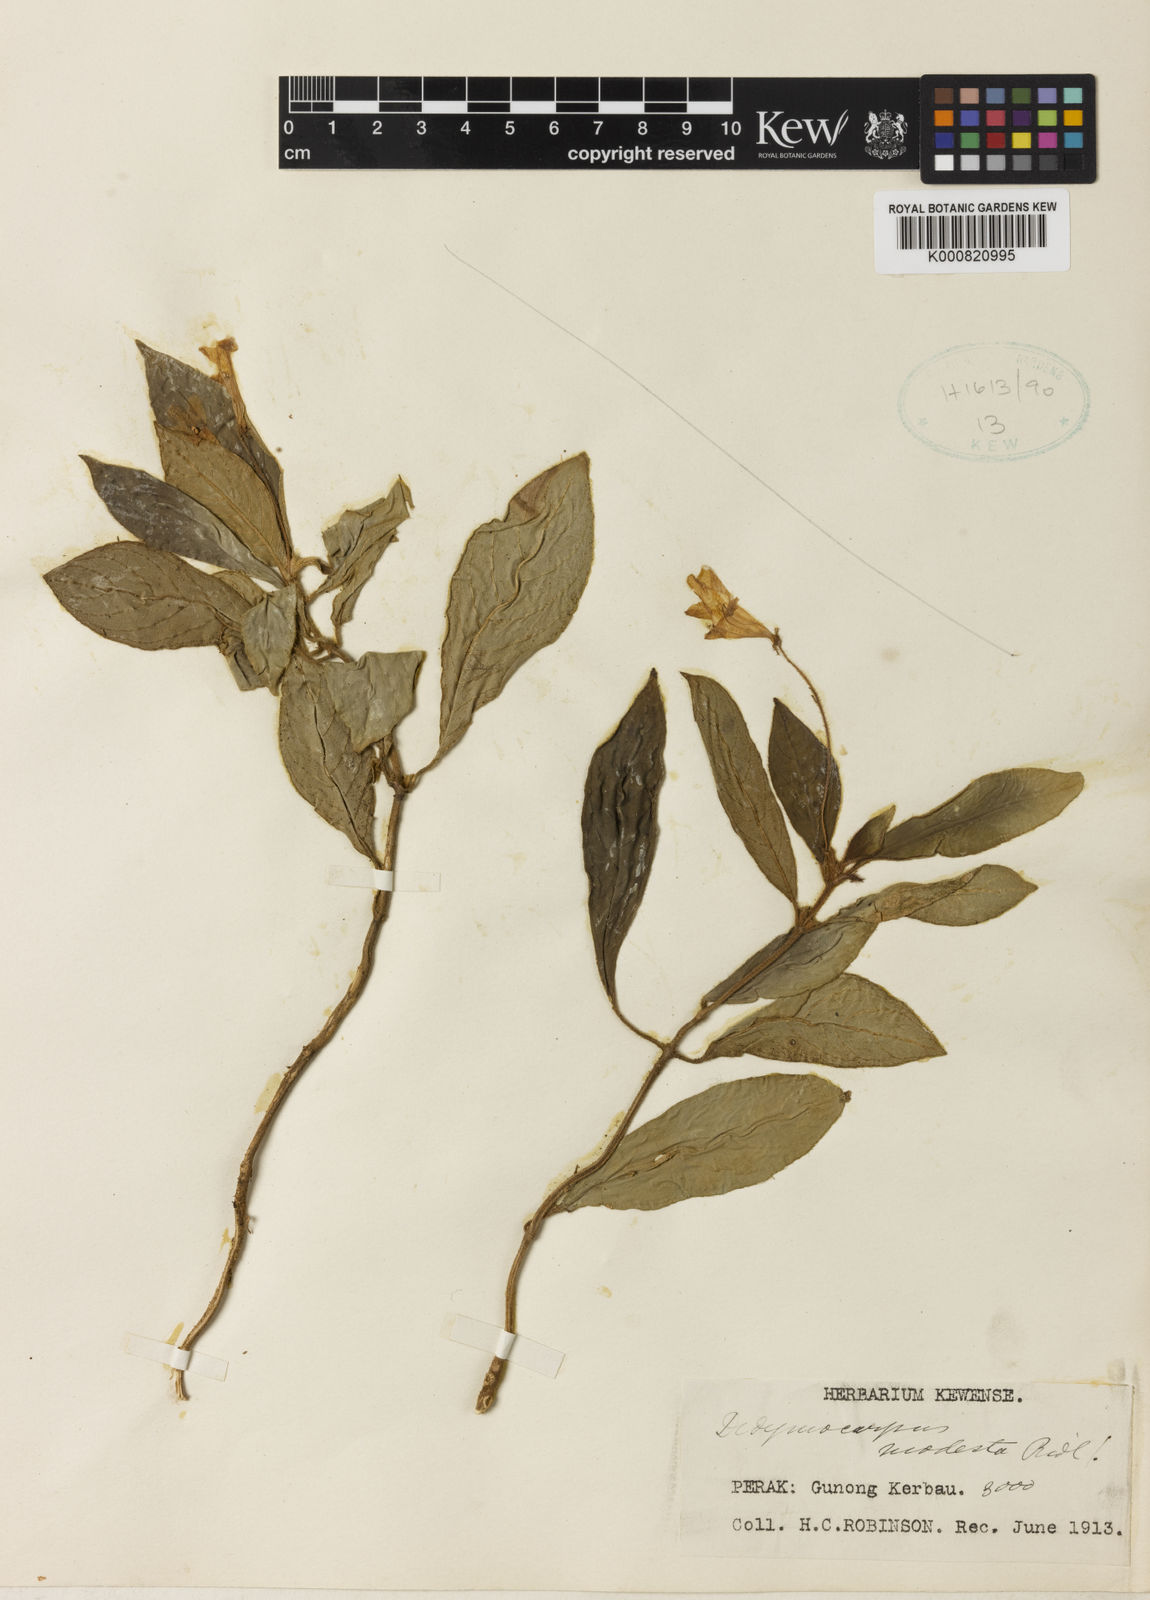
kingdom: Plantae
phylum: Tracheophyta
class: Magnoliopsida
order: Lamiales
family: Gesneriaceae
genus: Codonoboea
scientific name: Codonoboea modesta
